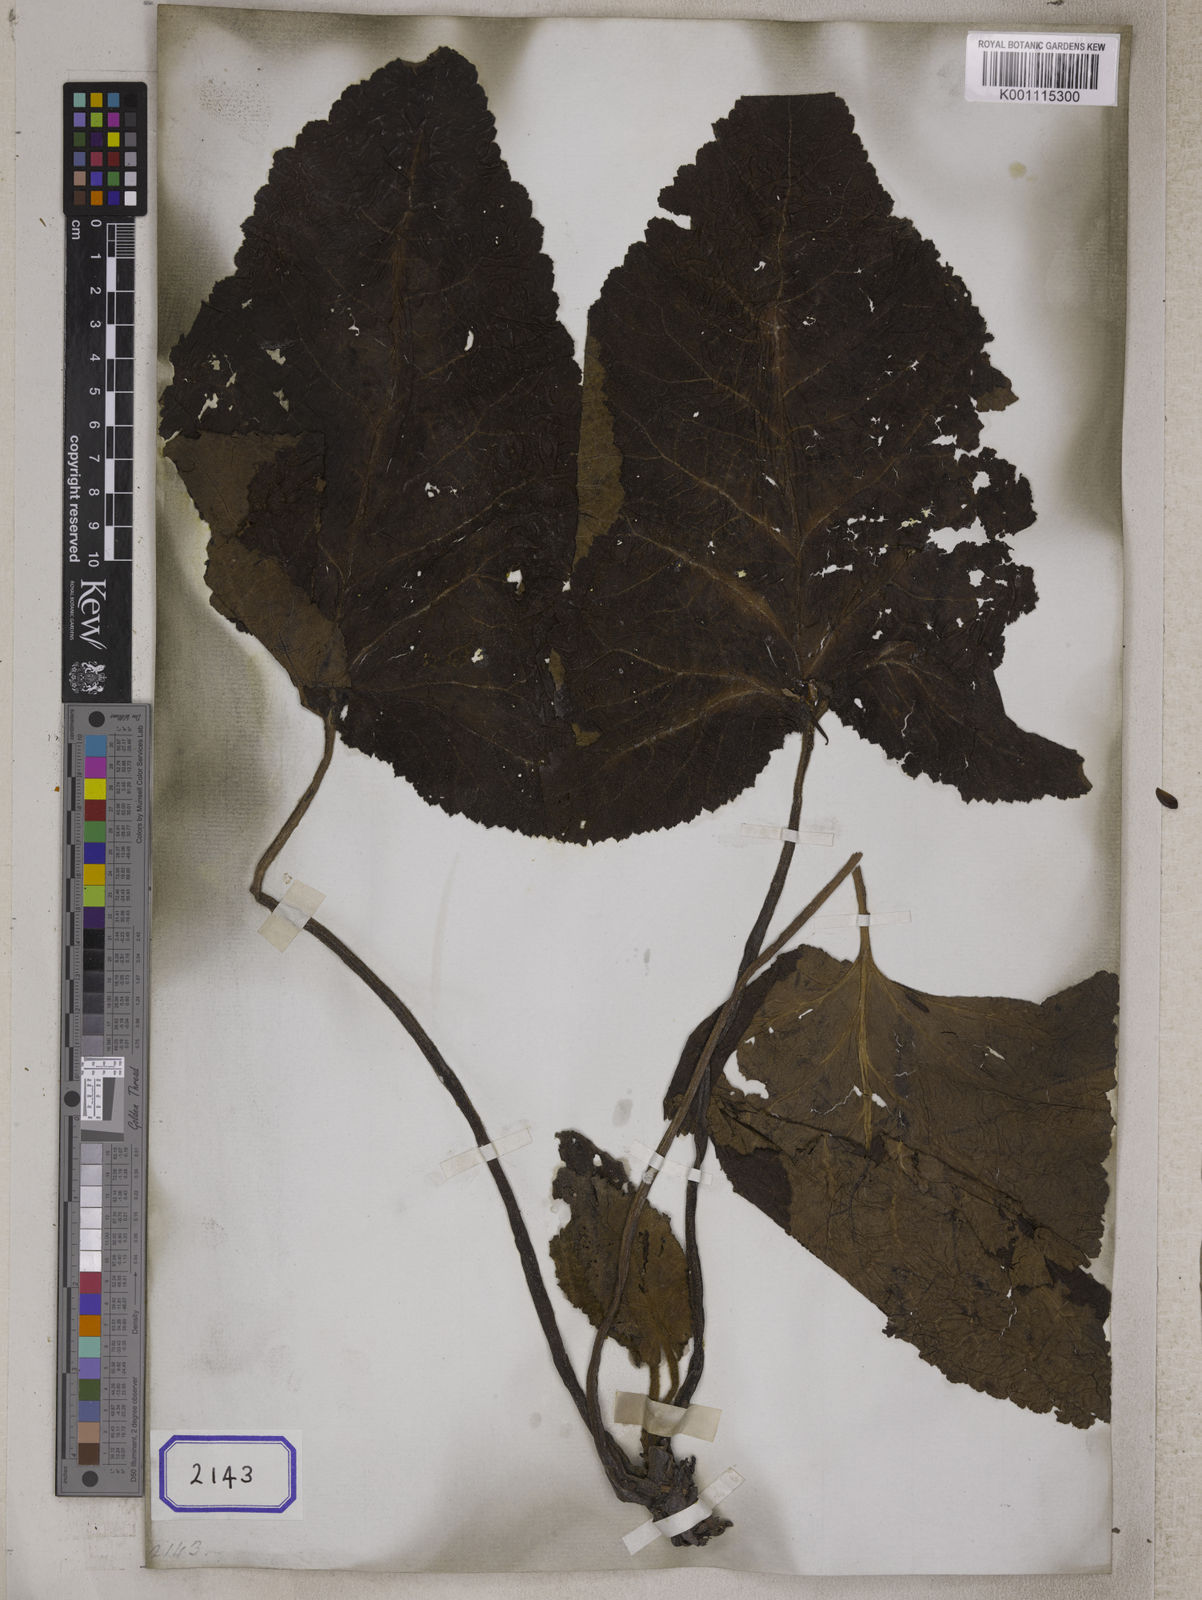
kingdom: Plantae
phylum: Tracheophyta
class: Magnoliopsida
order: Lamiales
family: Lamiaceae
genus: Salvia
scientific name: Salvia campanulata
